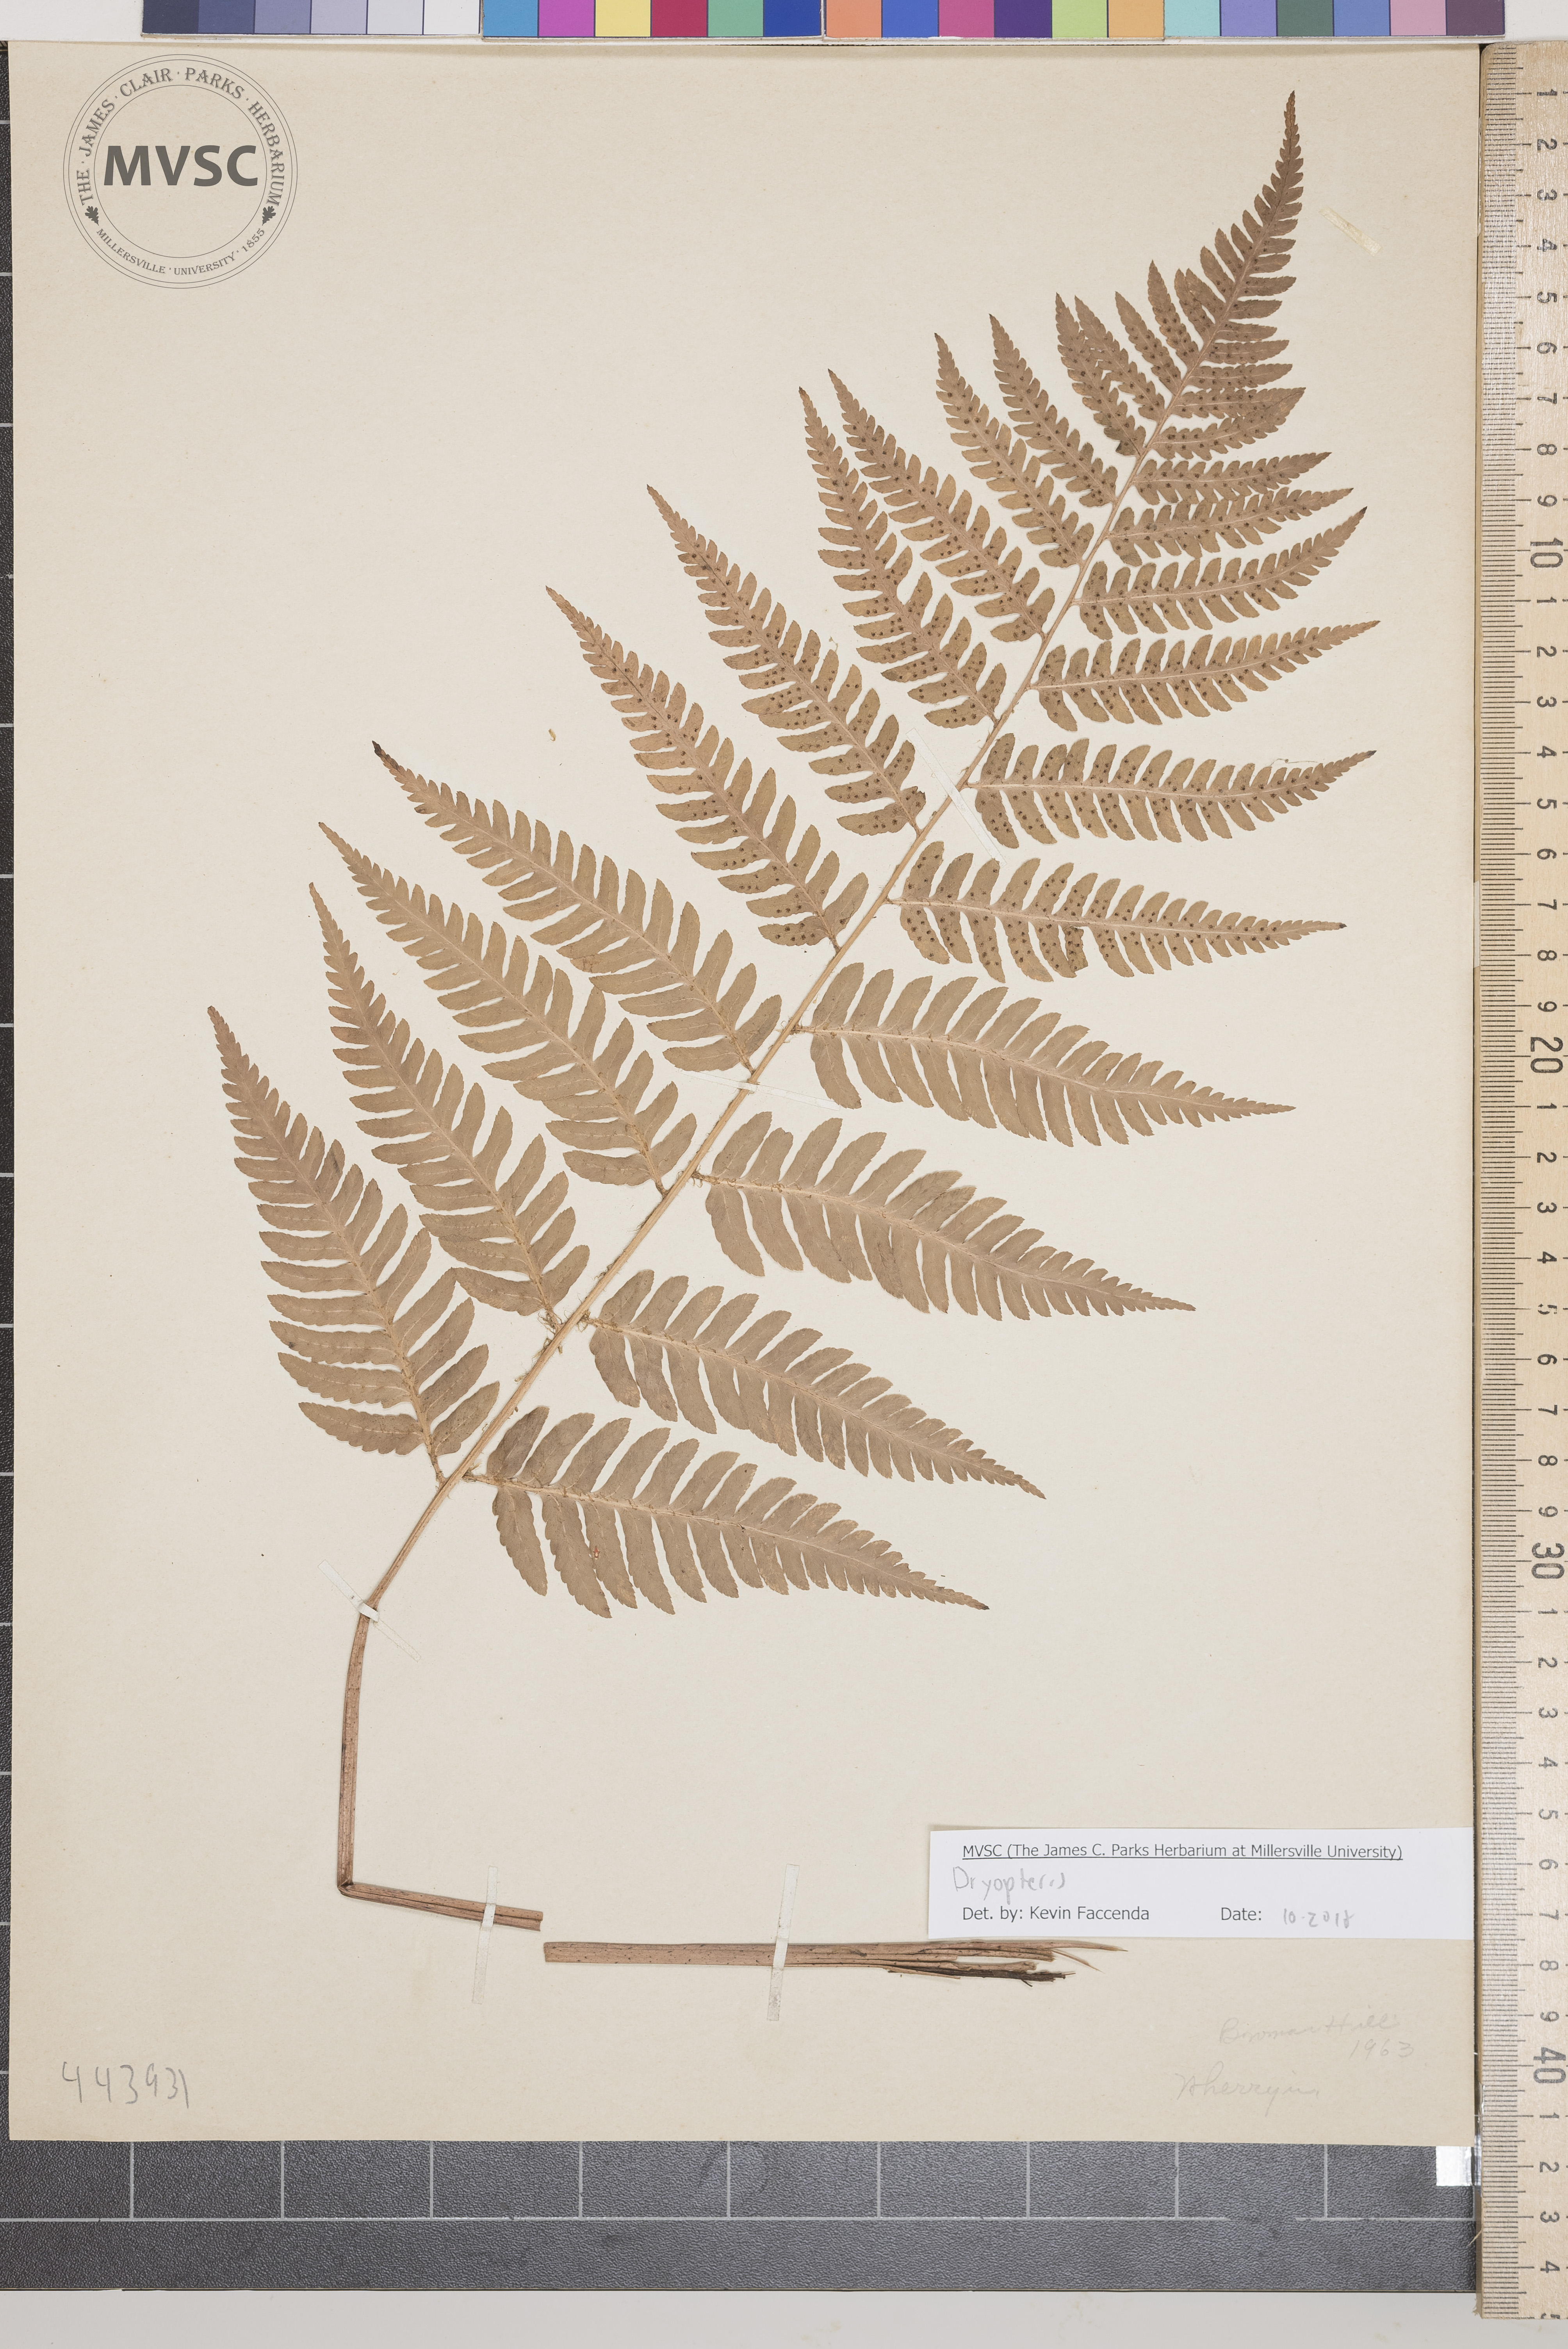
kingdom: Plantae
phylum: Tracheophyta
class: Polypodiopsida
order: Polypodiales
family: Dryopteridaceae
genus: Dryopteris
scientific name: Dryopteris
